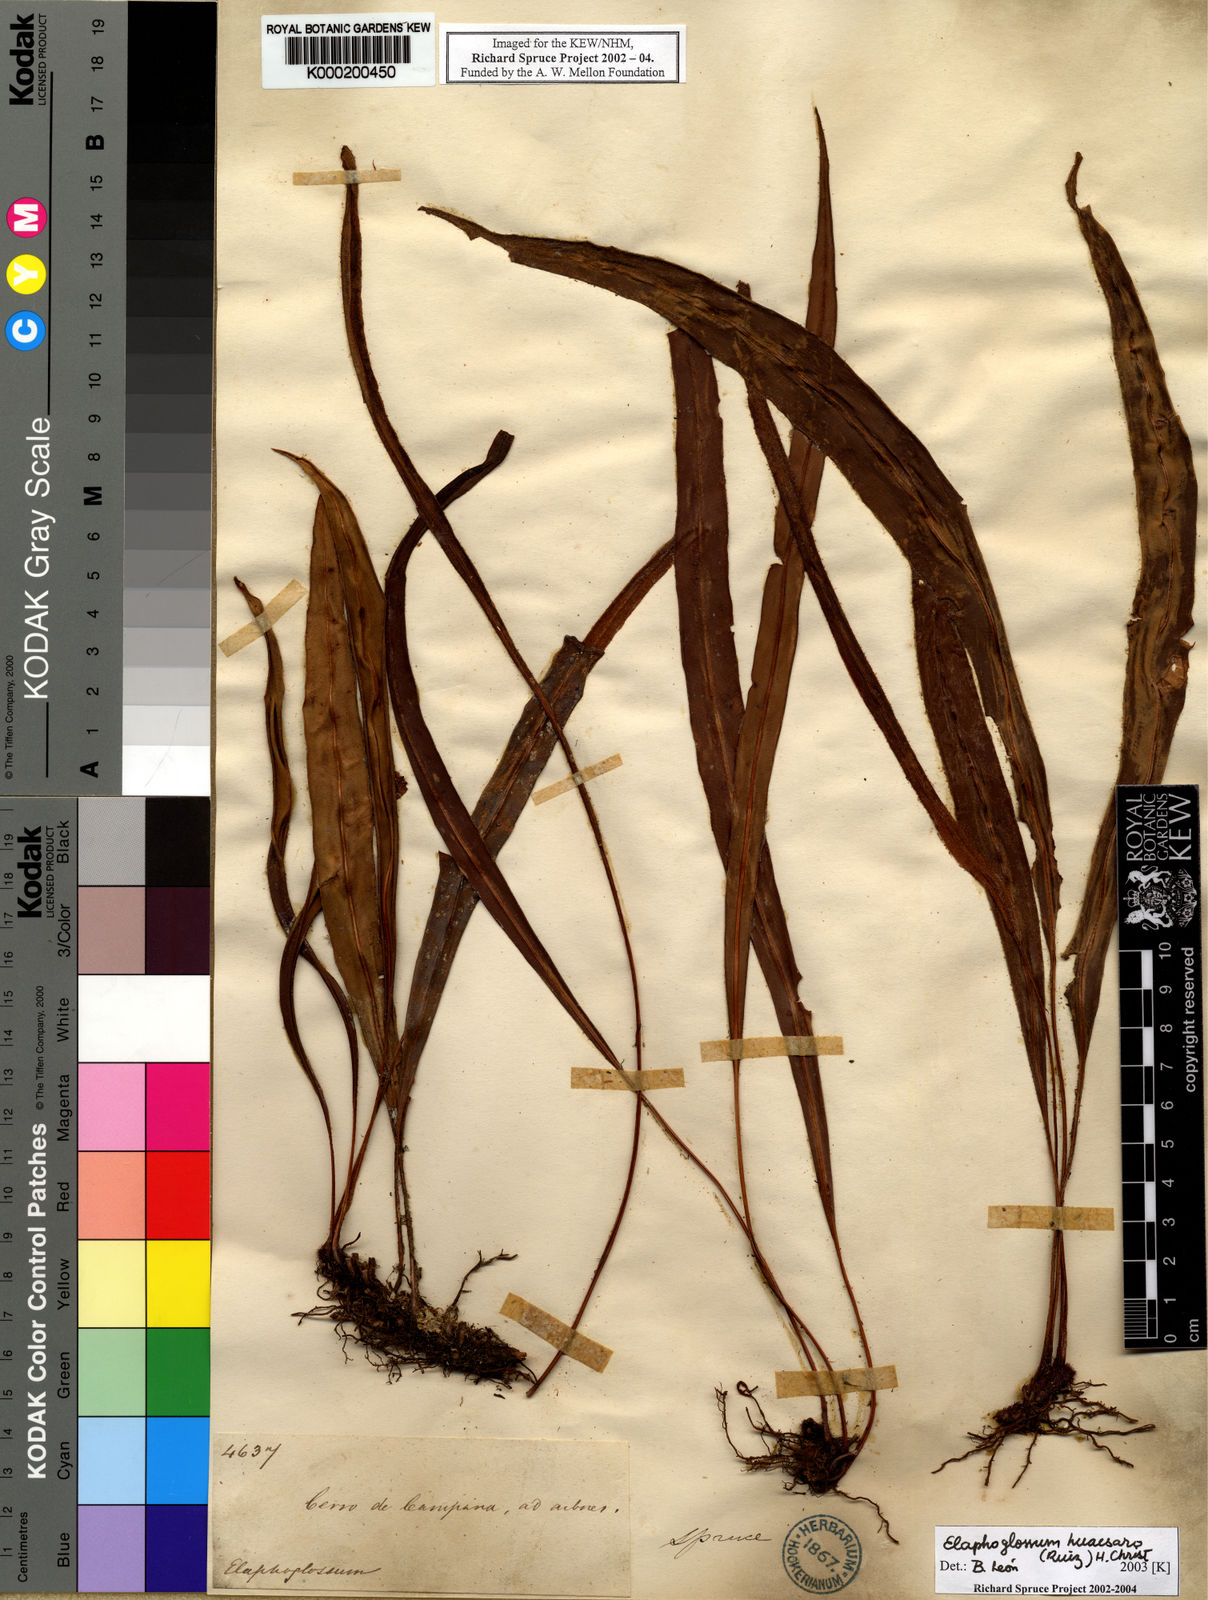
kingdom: Plantae
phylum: Tracheophyta
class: Polypodiopsida
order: Polypodiales
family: Dryopteridaceae
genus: Elaphoglossum
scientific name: Elaphoglossum
